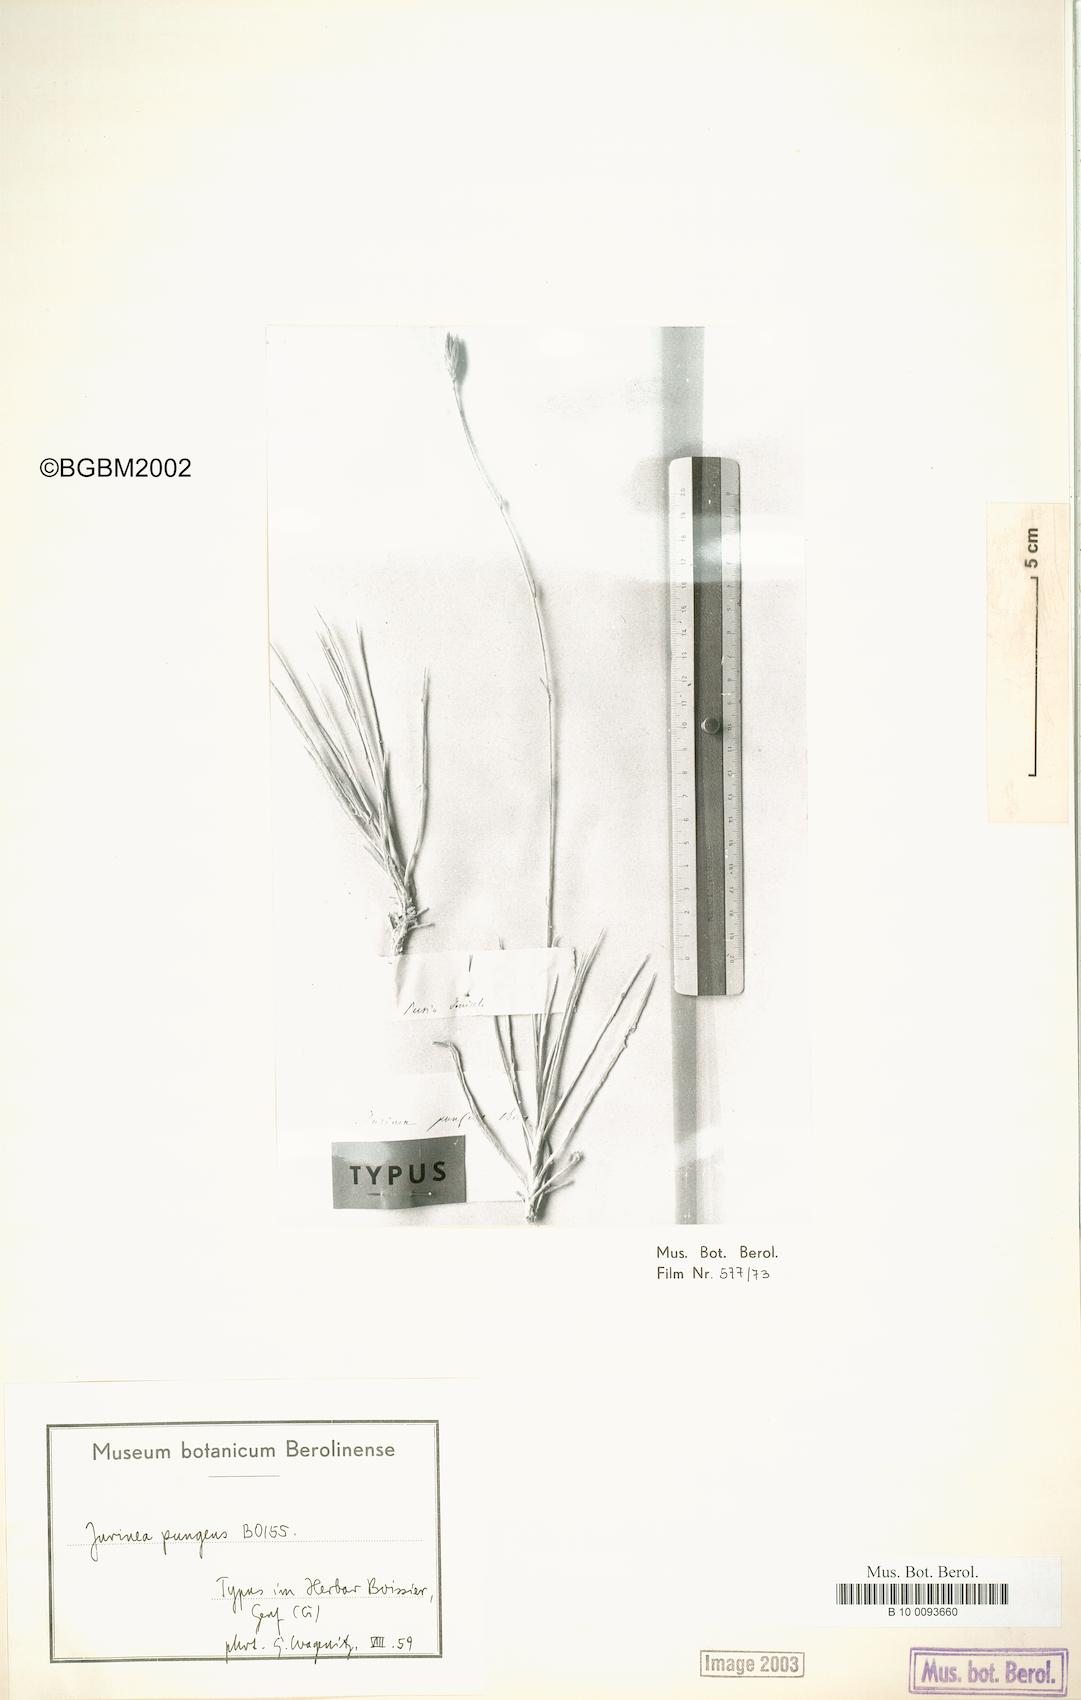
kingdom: Plantae
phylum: Tracheophyta
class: Magnoliopsida
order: Asterales
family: Asteraceae
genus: Cousinia
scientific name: Cousinia argentea
